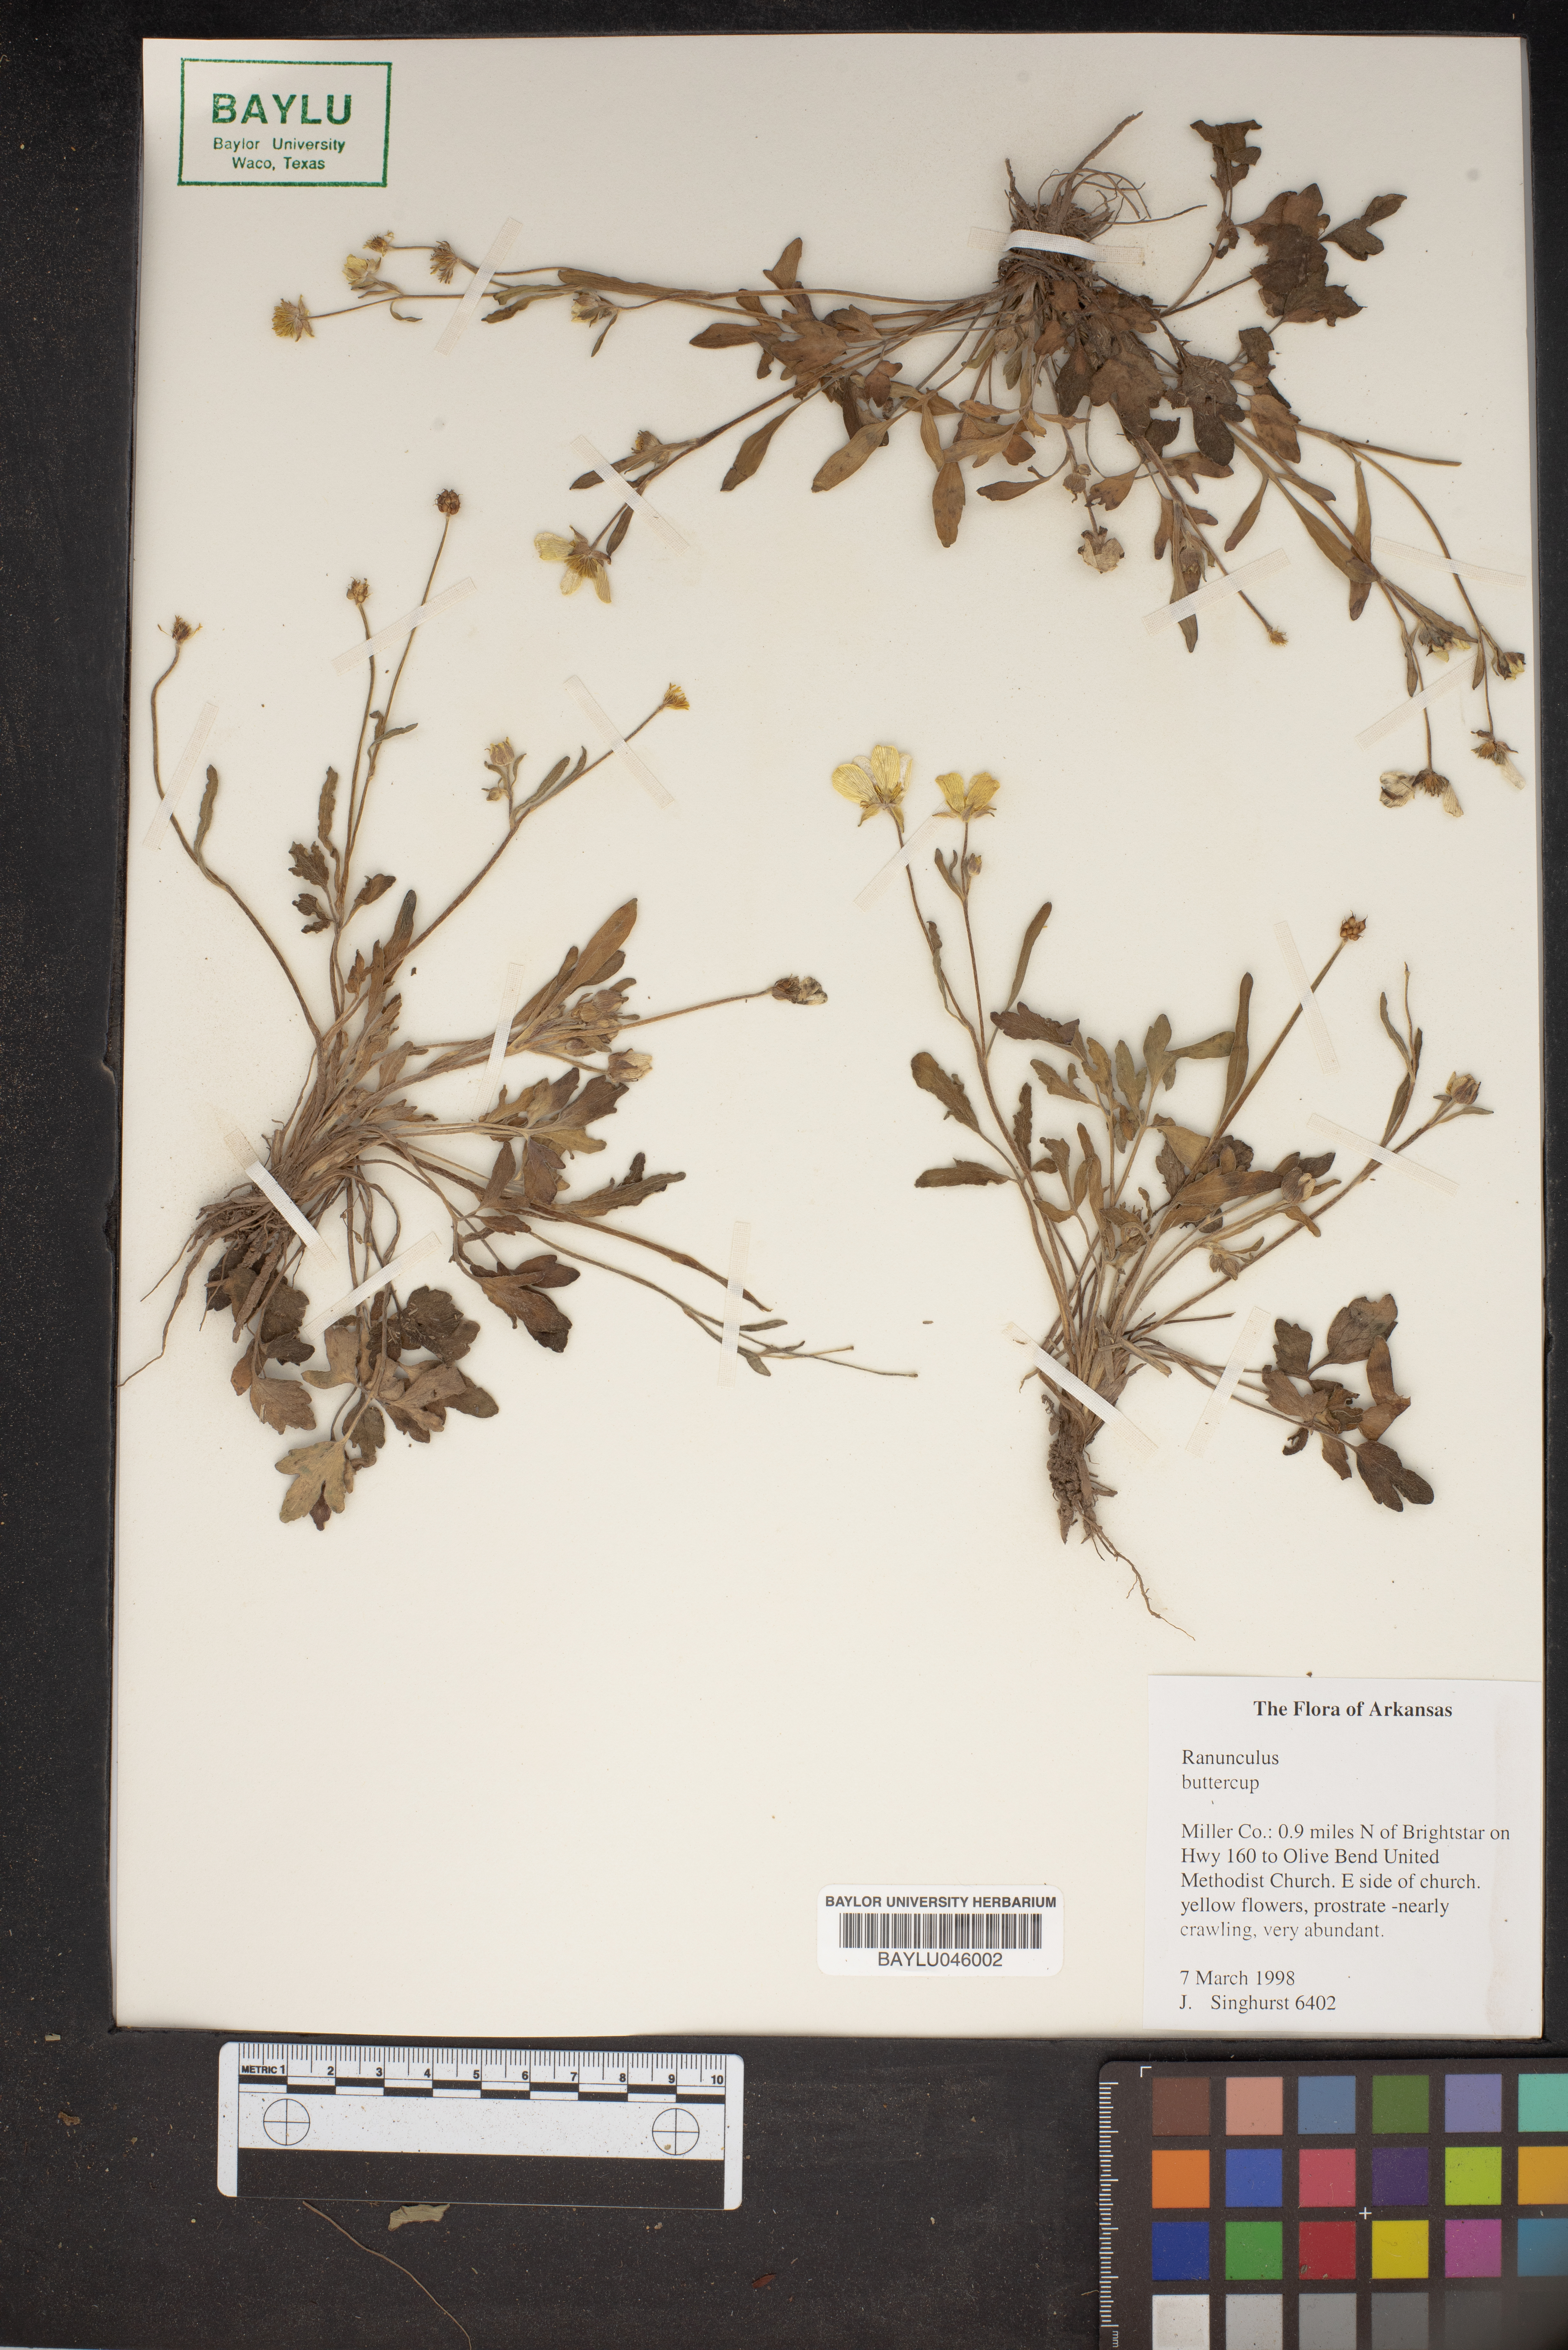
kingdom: Plantae
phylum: Tracheophyta
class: Magnoliopsida
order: Ranunculales
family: Ranunculaceae
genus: Ranunculus
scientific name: Ranunculus
